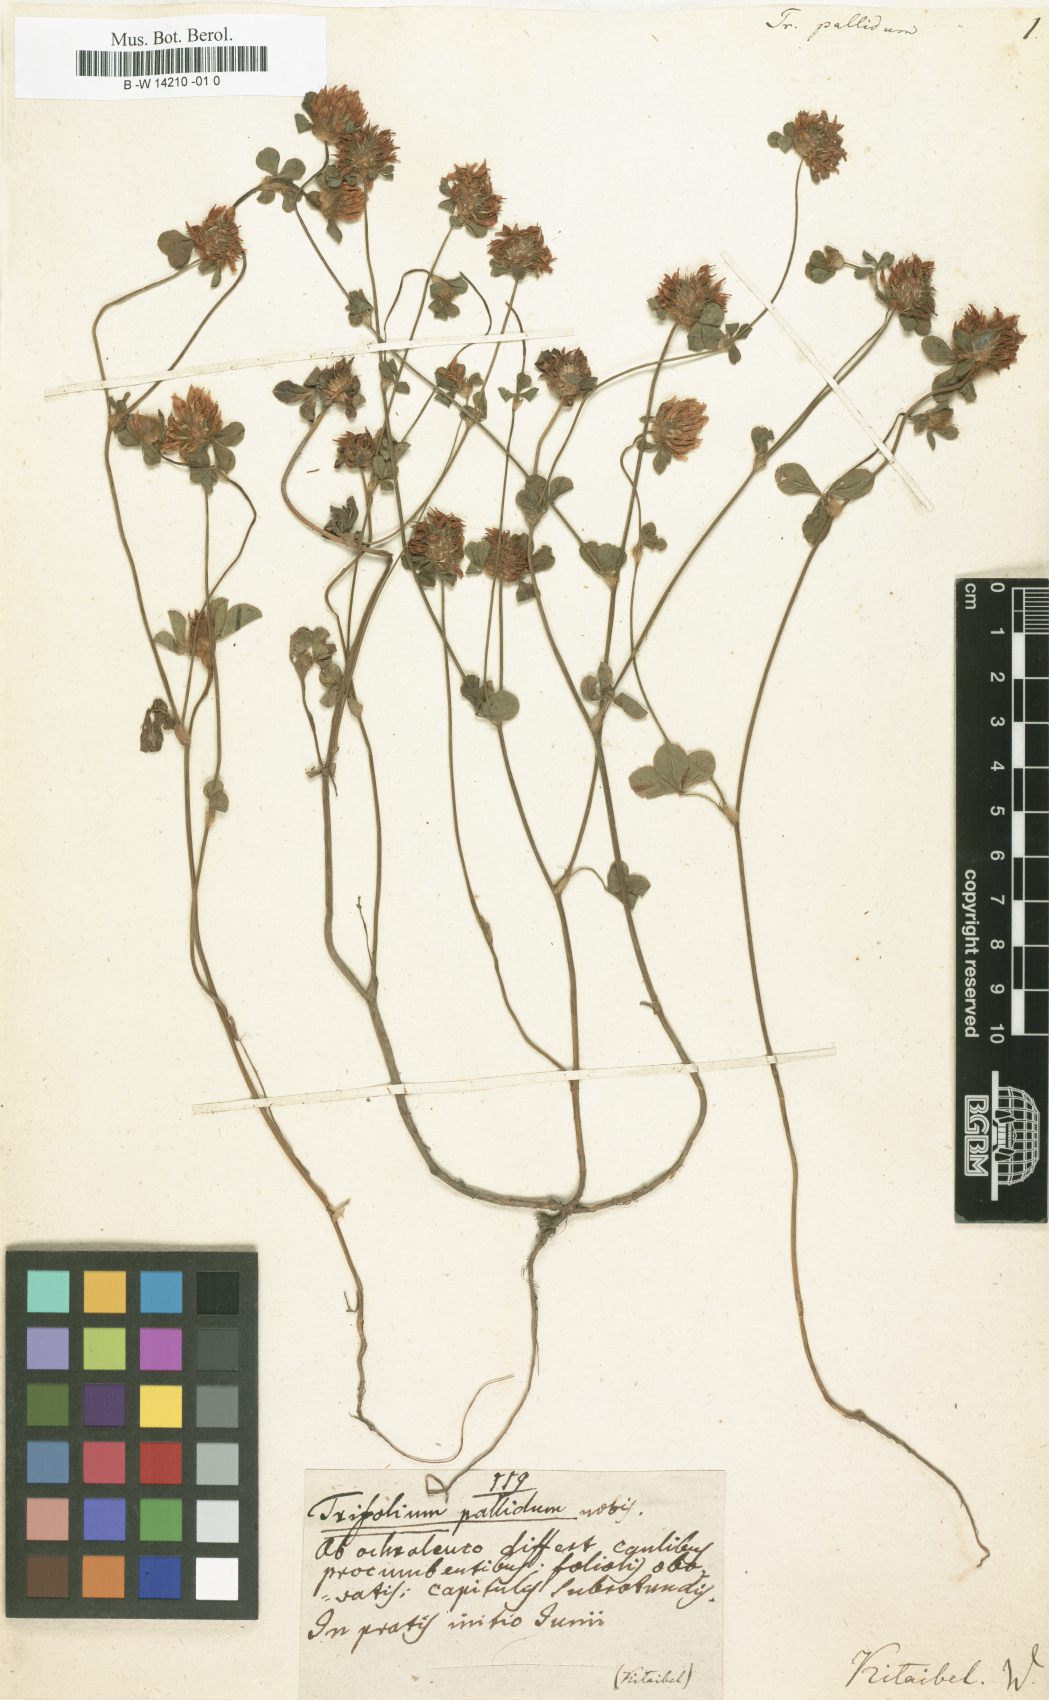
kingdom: Plantae
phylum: Tracheophyta
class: Magnoliopsida
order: Fabales
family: Fabaceae
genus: Trifolium
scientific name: Trifolium pallidum
